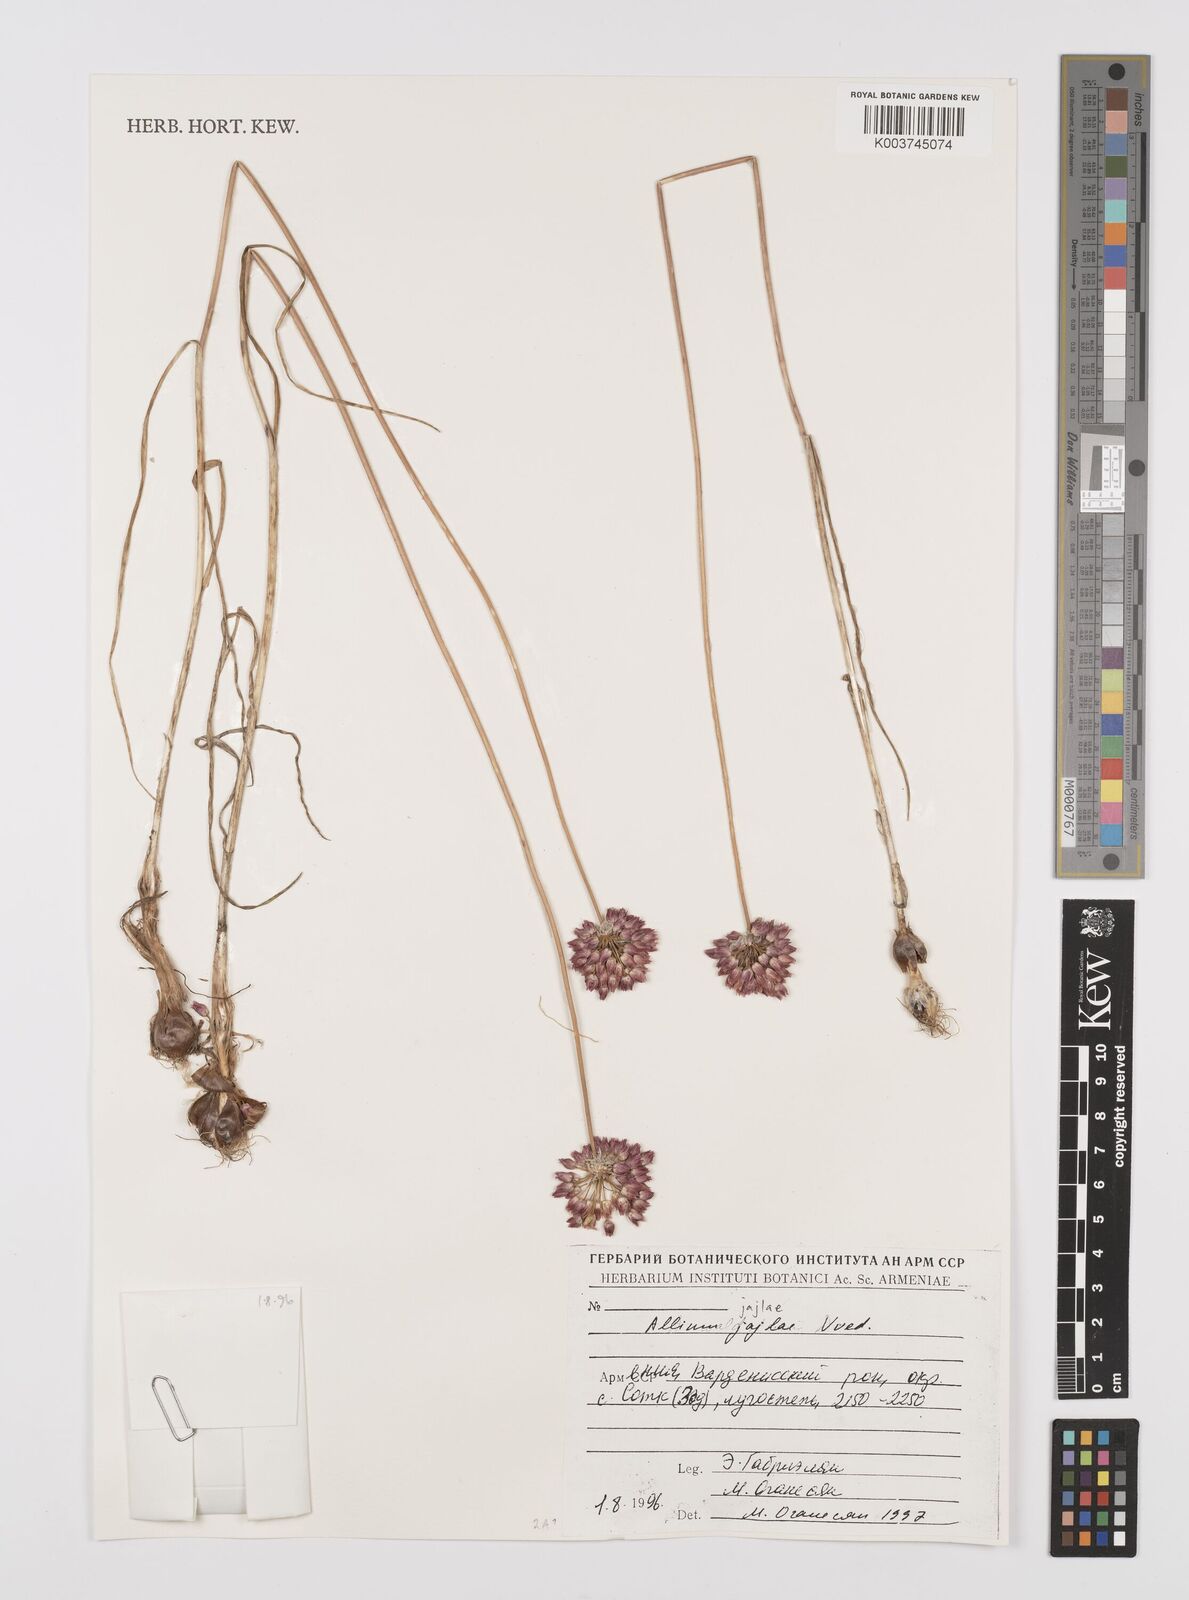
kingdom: Plantae
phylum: Tracheophyta
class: Liliopsida
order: Asparagales
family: Amaryllidaceae
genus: Allium
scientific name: Allium rotundum
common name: Sand leek
